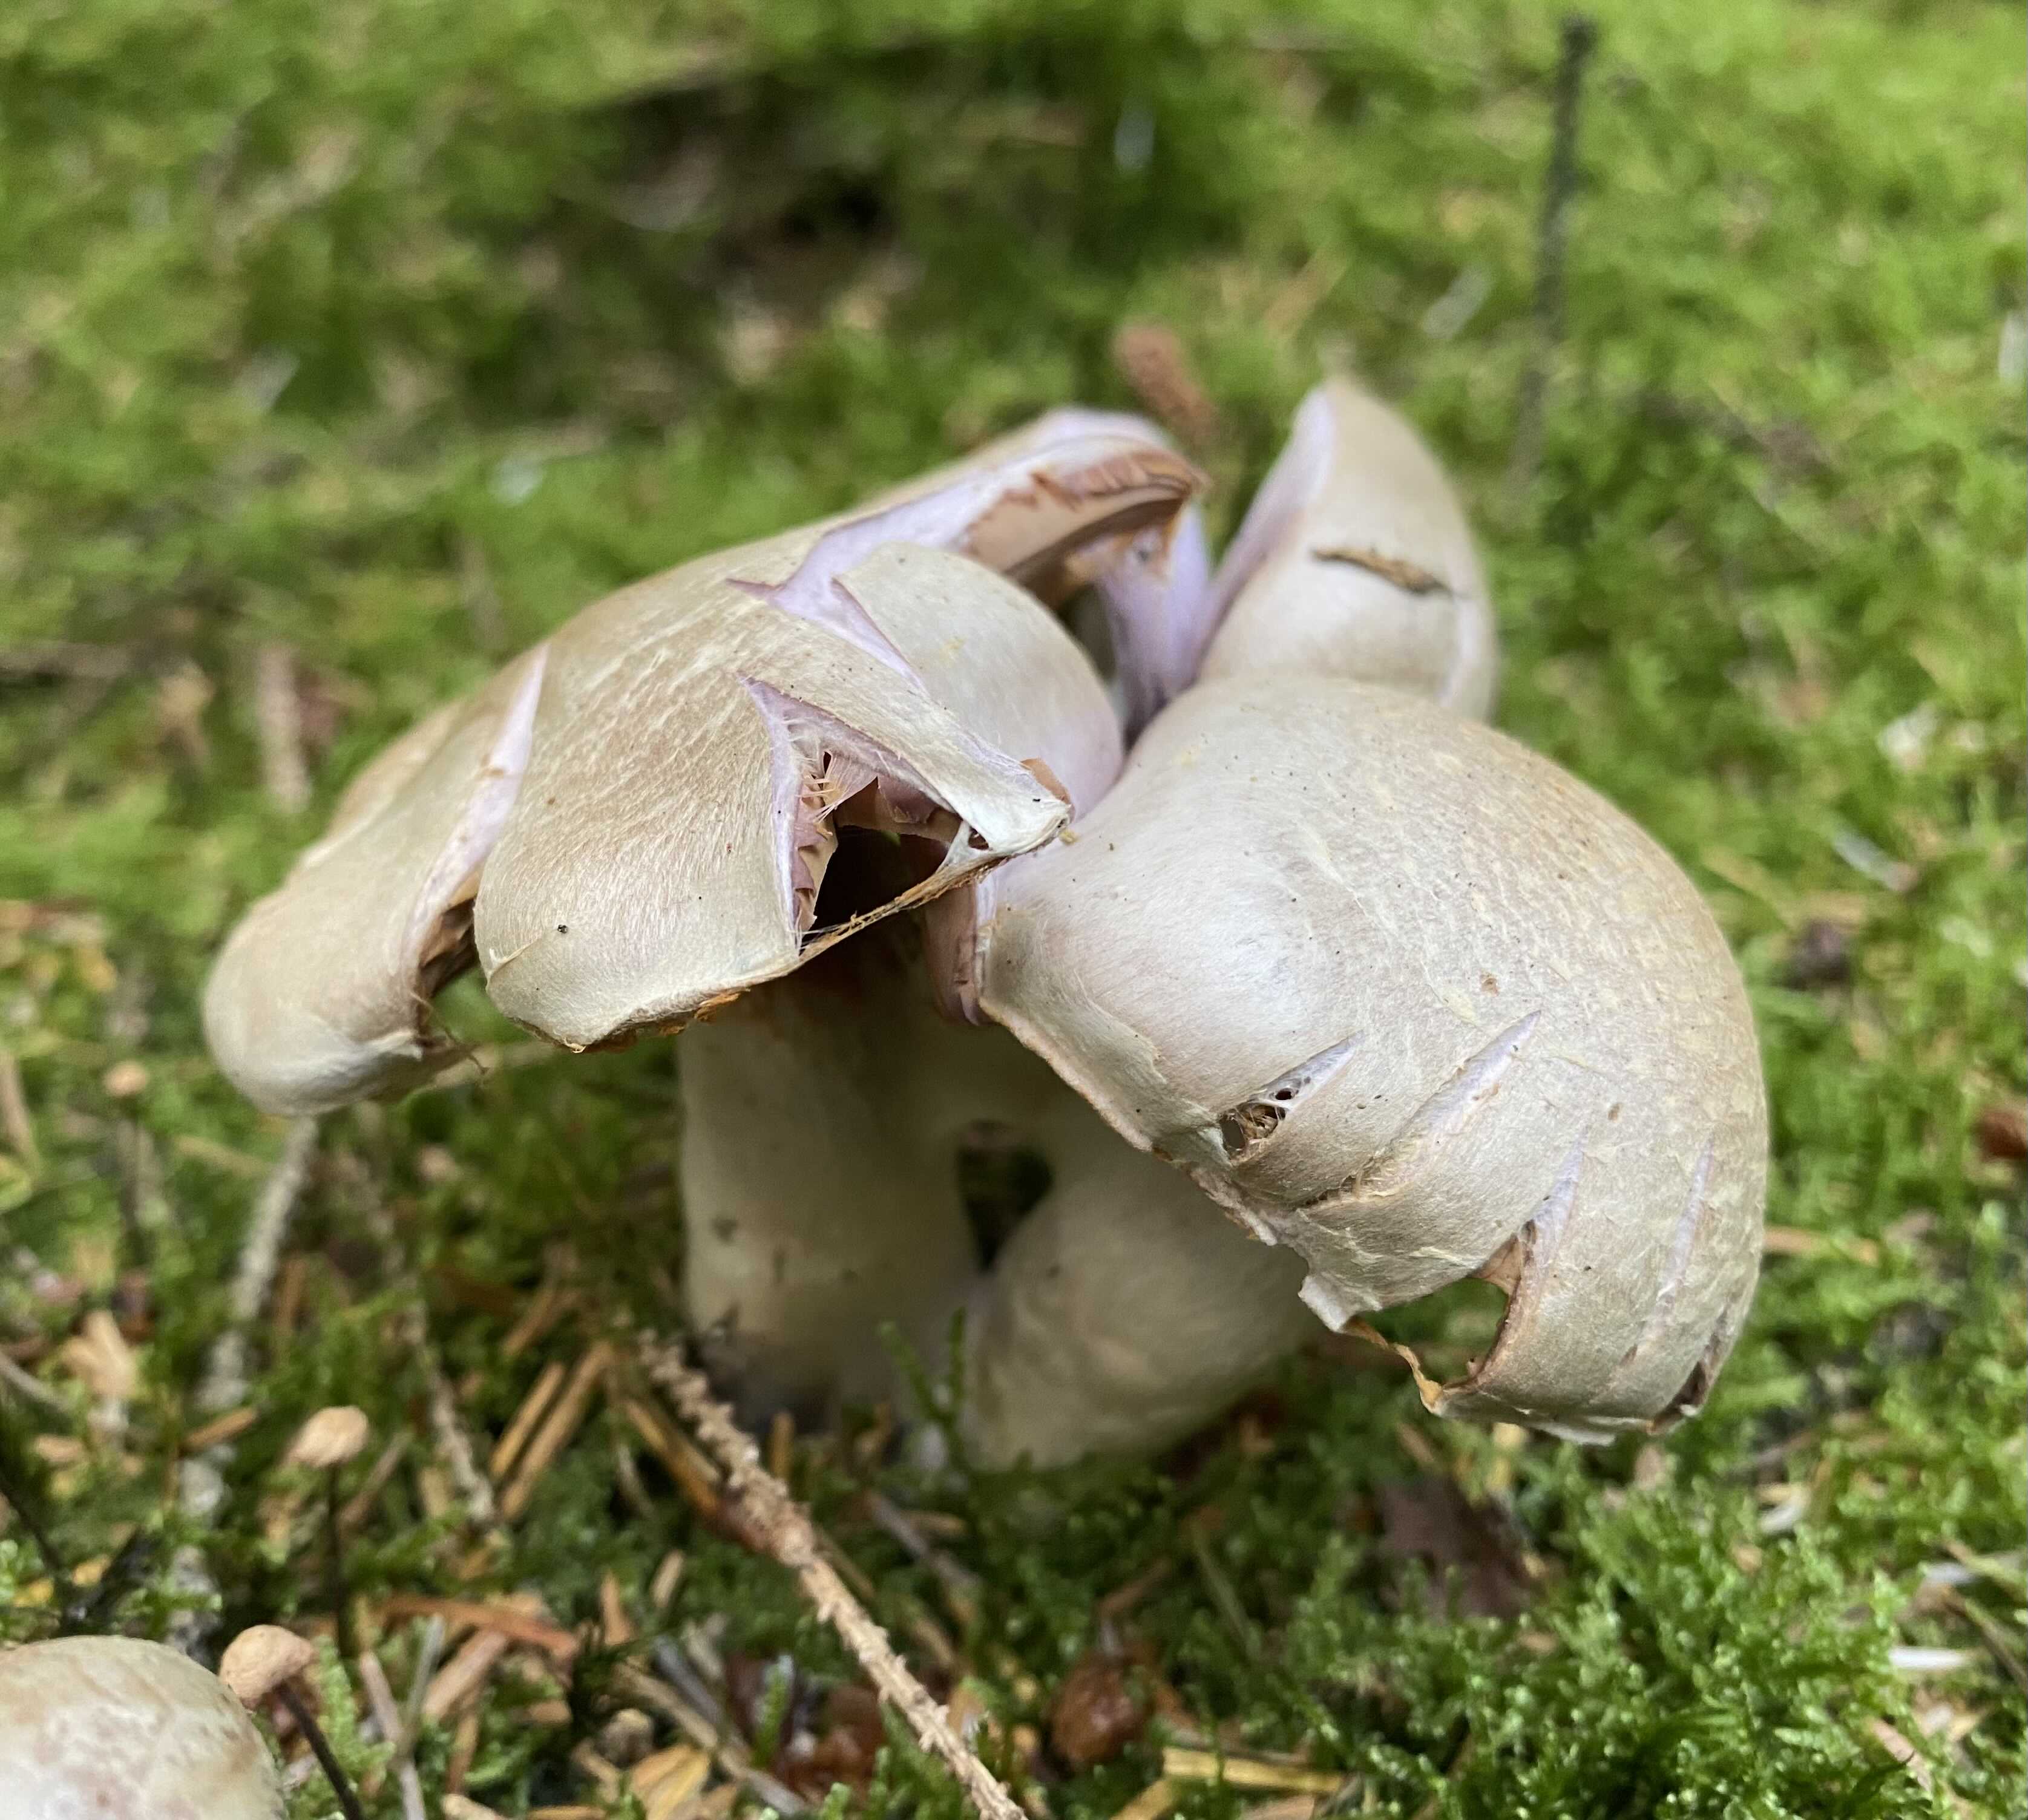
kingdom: Fungi
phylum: Basidiomycota
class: Agaricomycetes
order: Agaricales
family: Cortinariaceae
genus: Cortinarius
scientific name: Cortinarius
